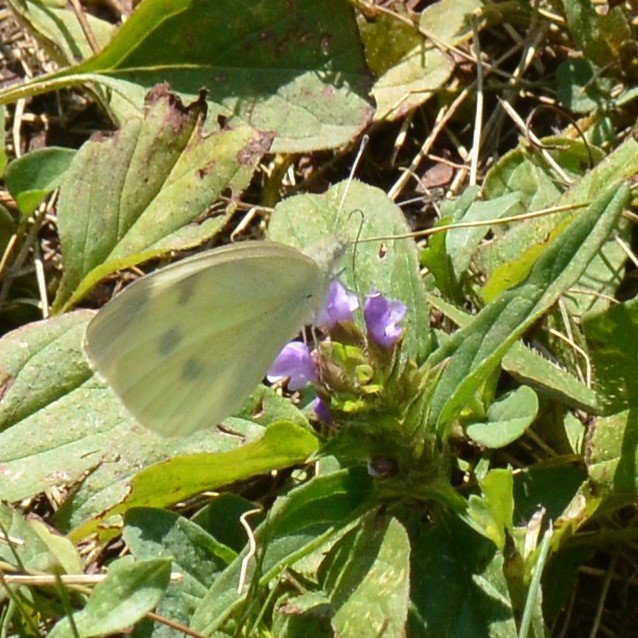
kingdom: Animalia
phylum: Arthropoda
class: Insecta
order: Lepidoptera
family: Pieridae
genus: Pieris
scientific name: Pieris rapae
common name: Cabbage White
